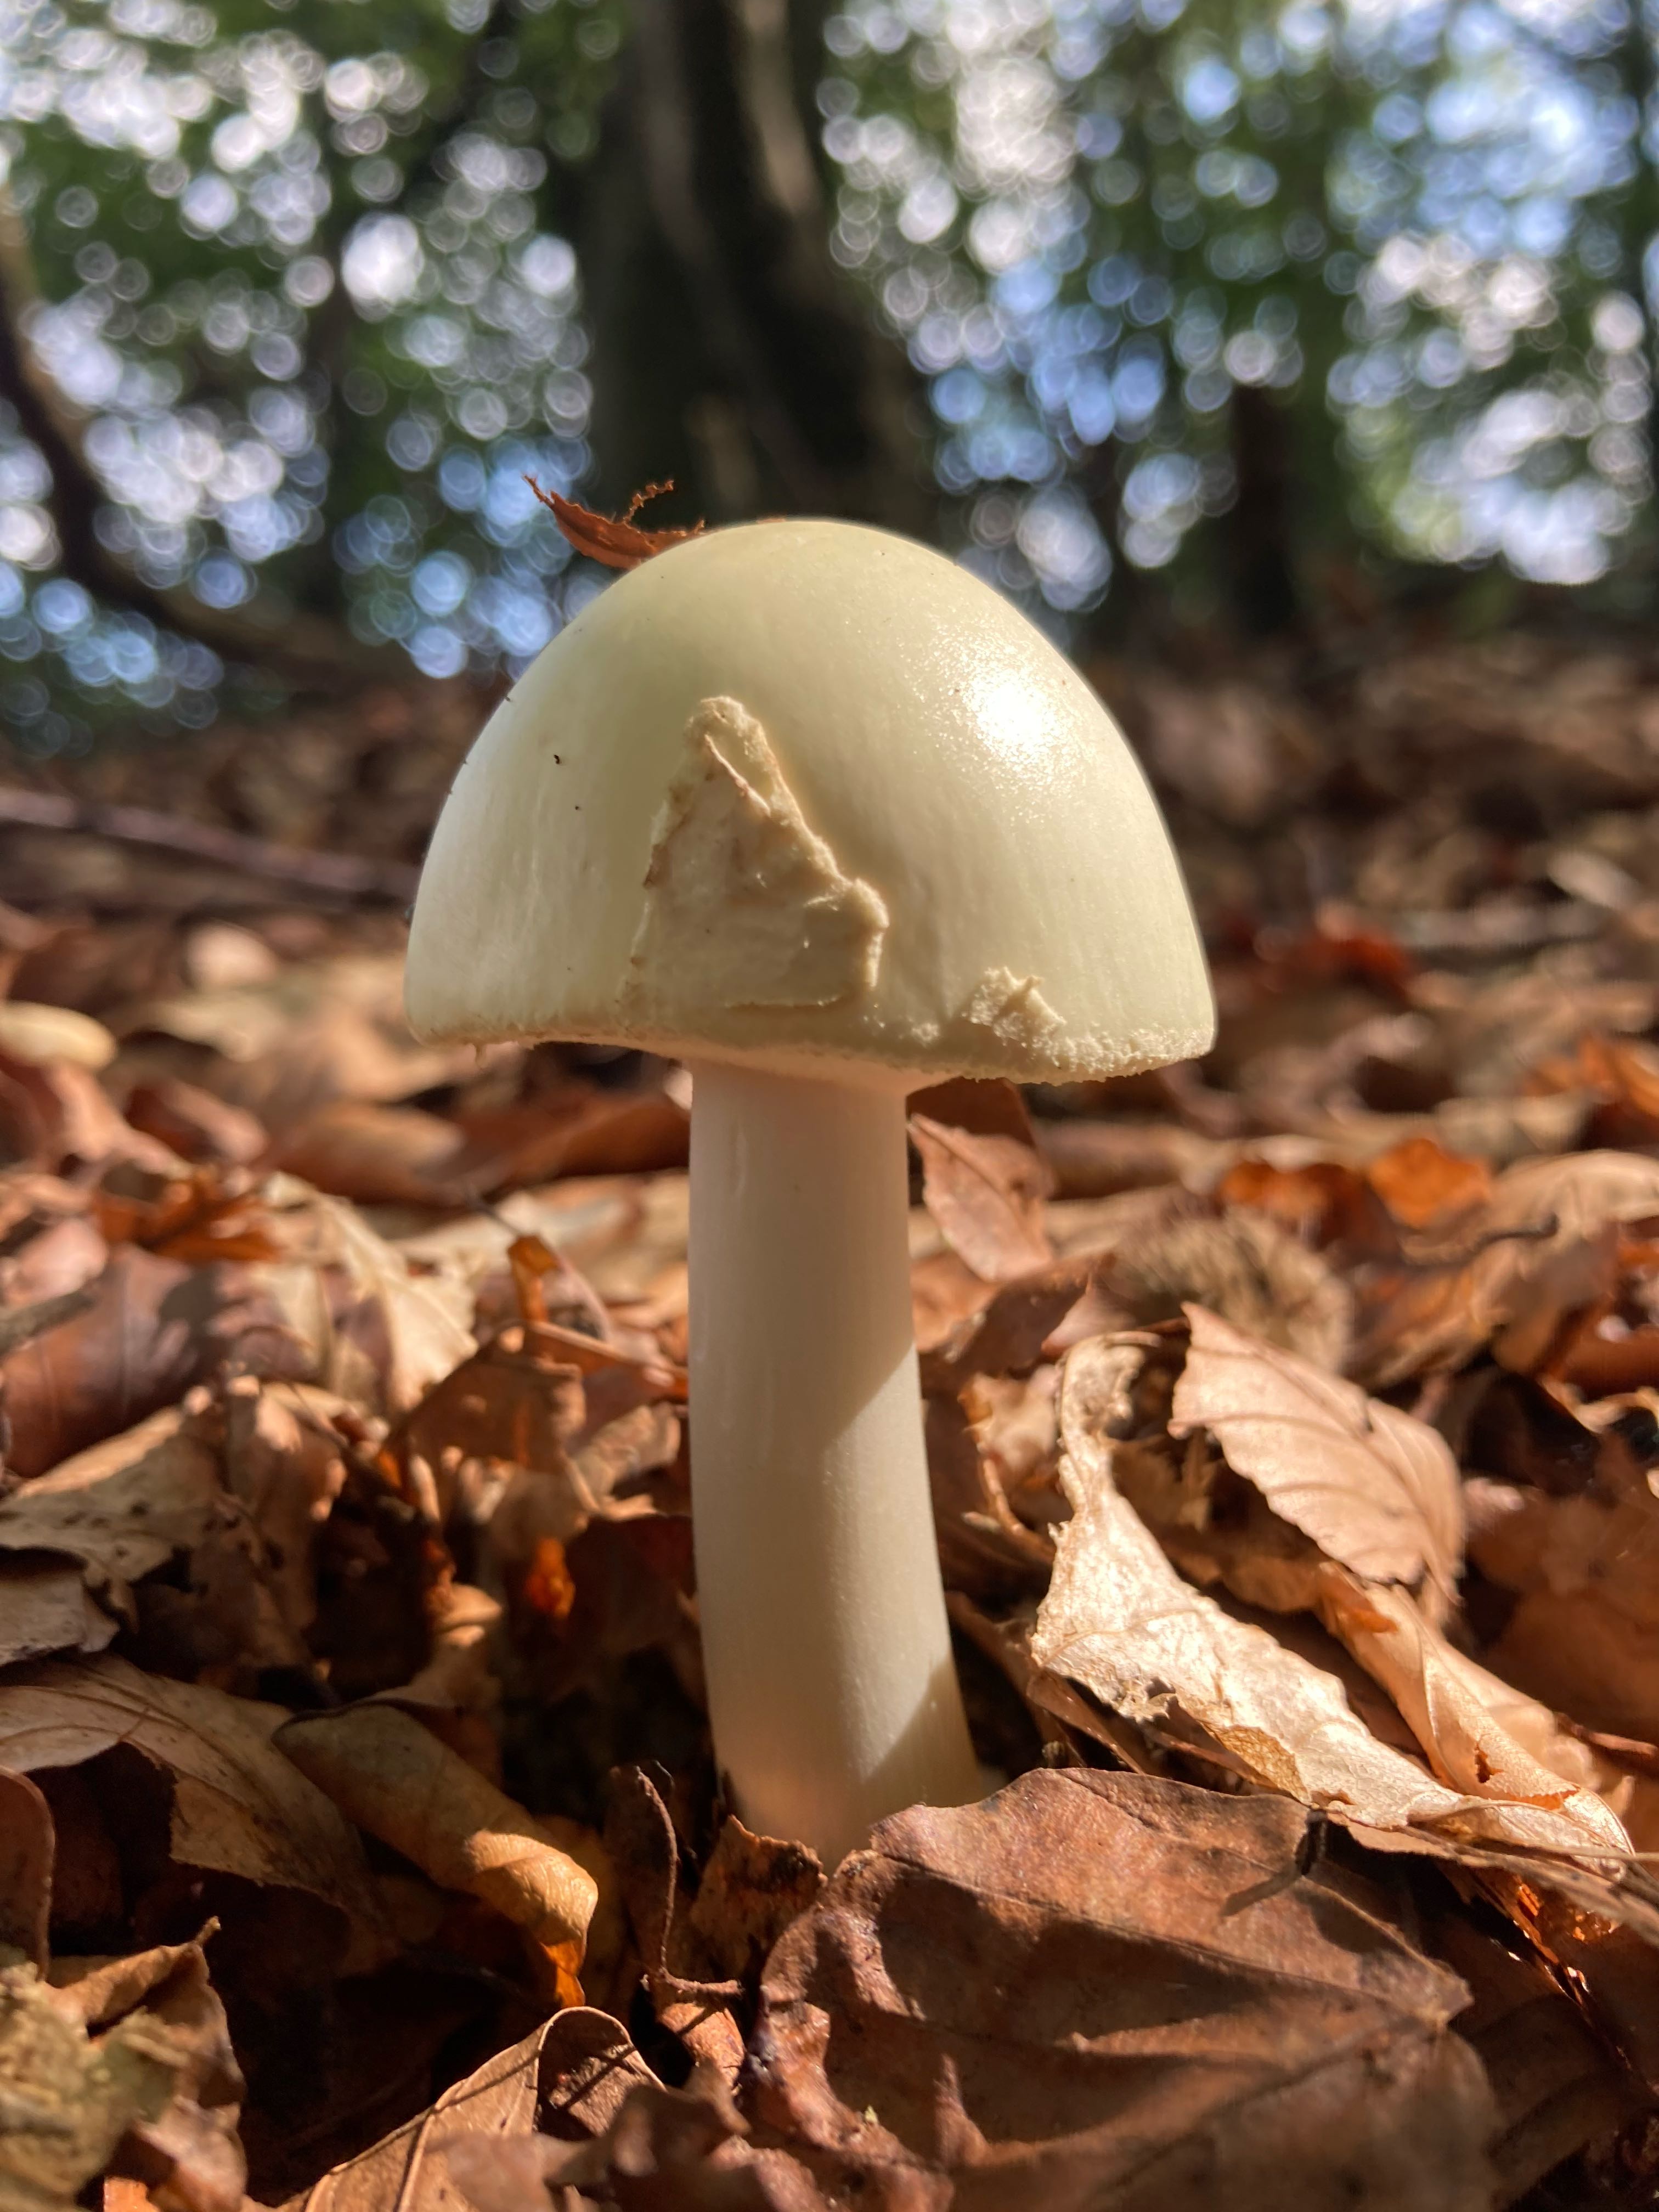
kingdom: Fungi
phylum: Basidiomycota
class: Agaricomycetes
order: Agaricales
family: Amanitaceae
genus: Amanita
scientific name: Amanita citrina
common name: kugleknoldet fluesvamp
